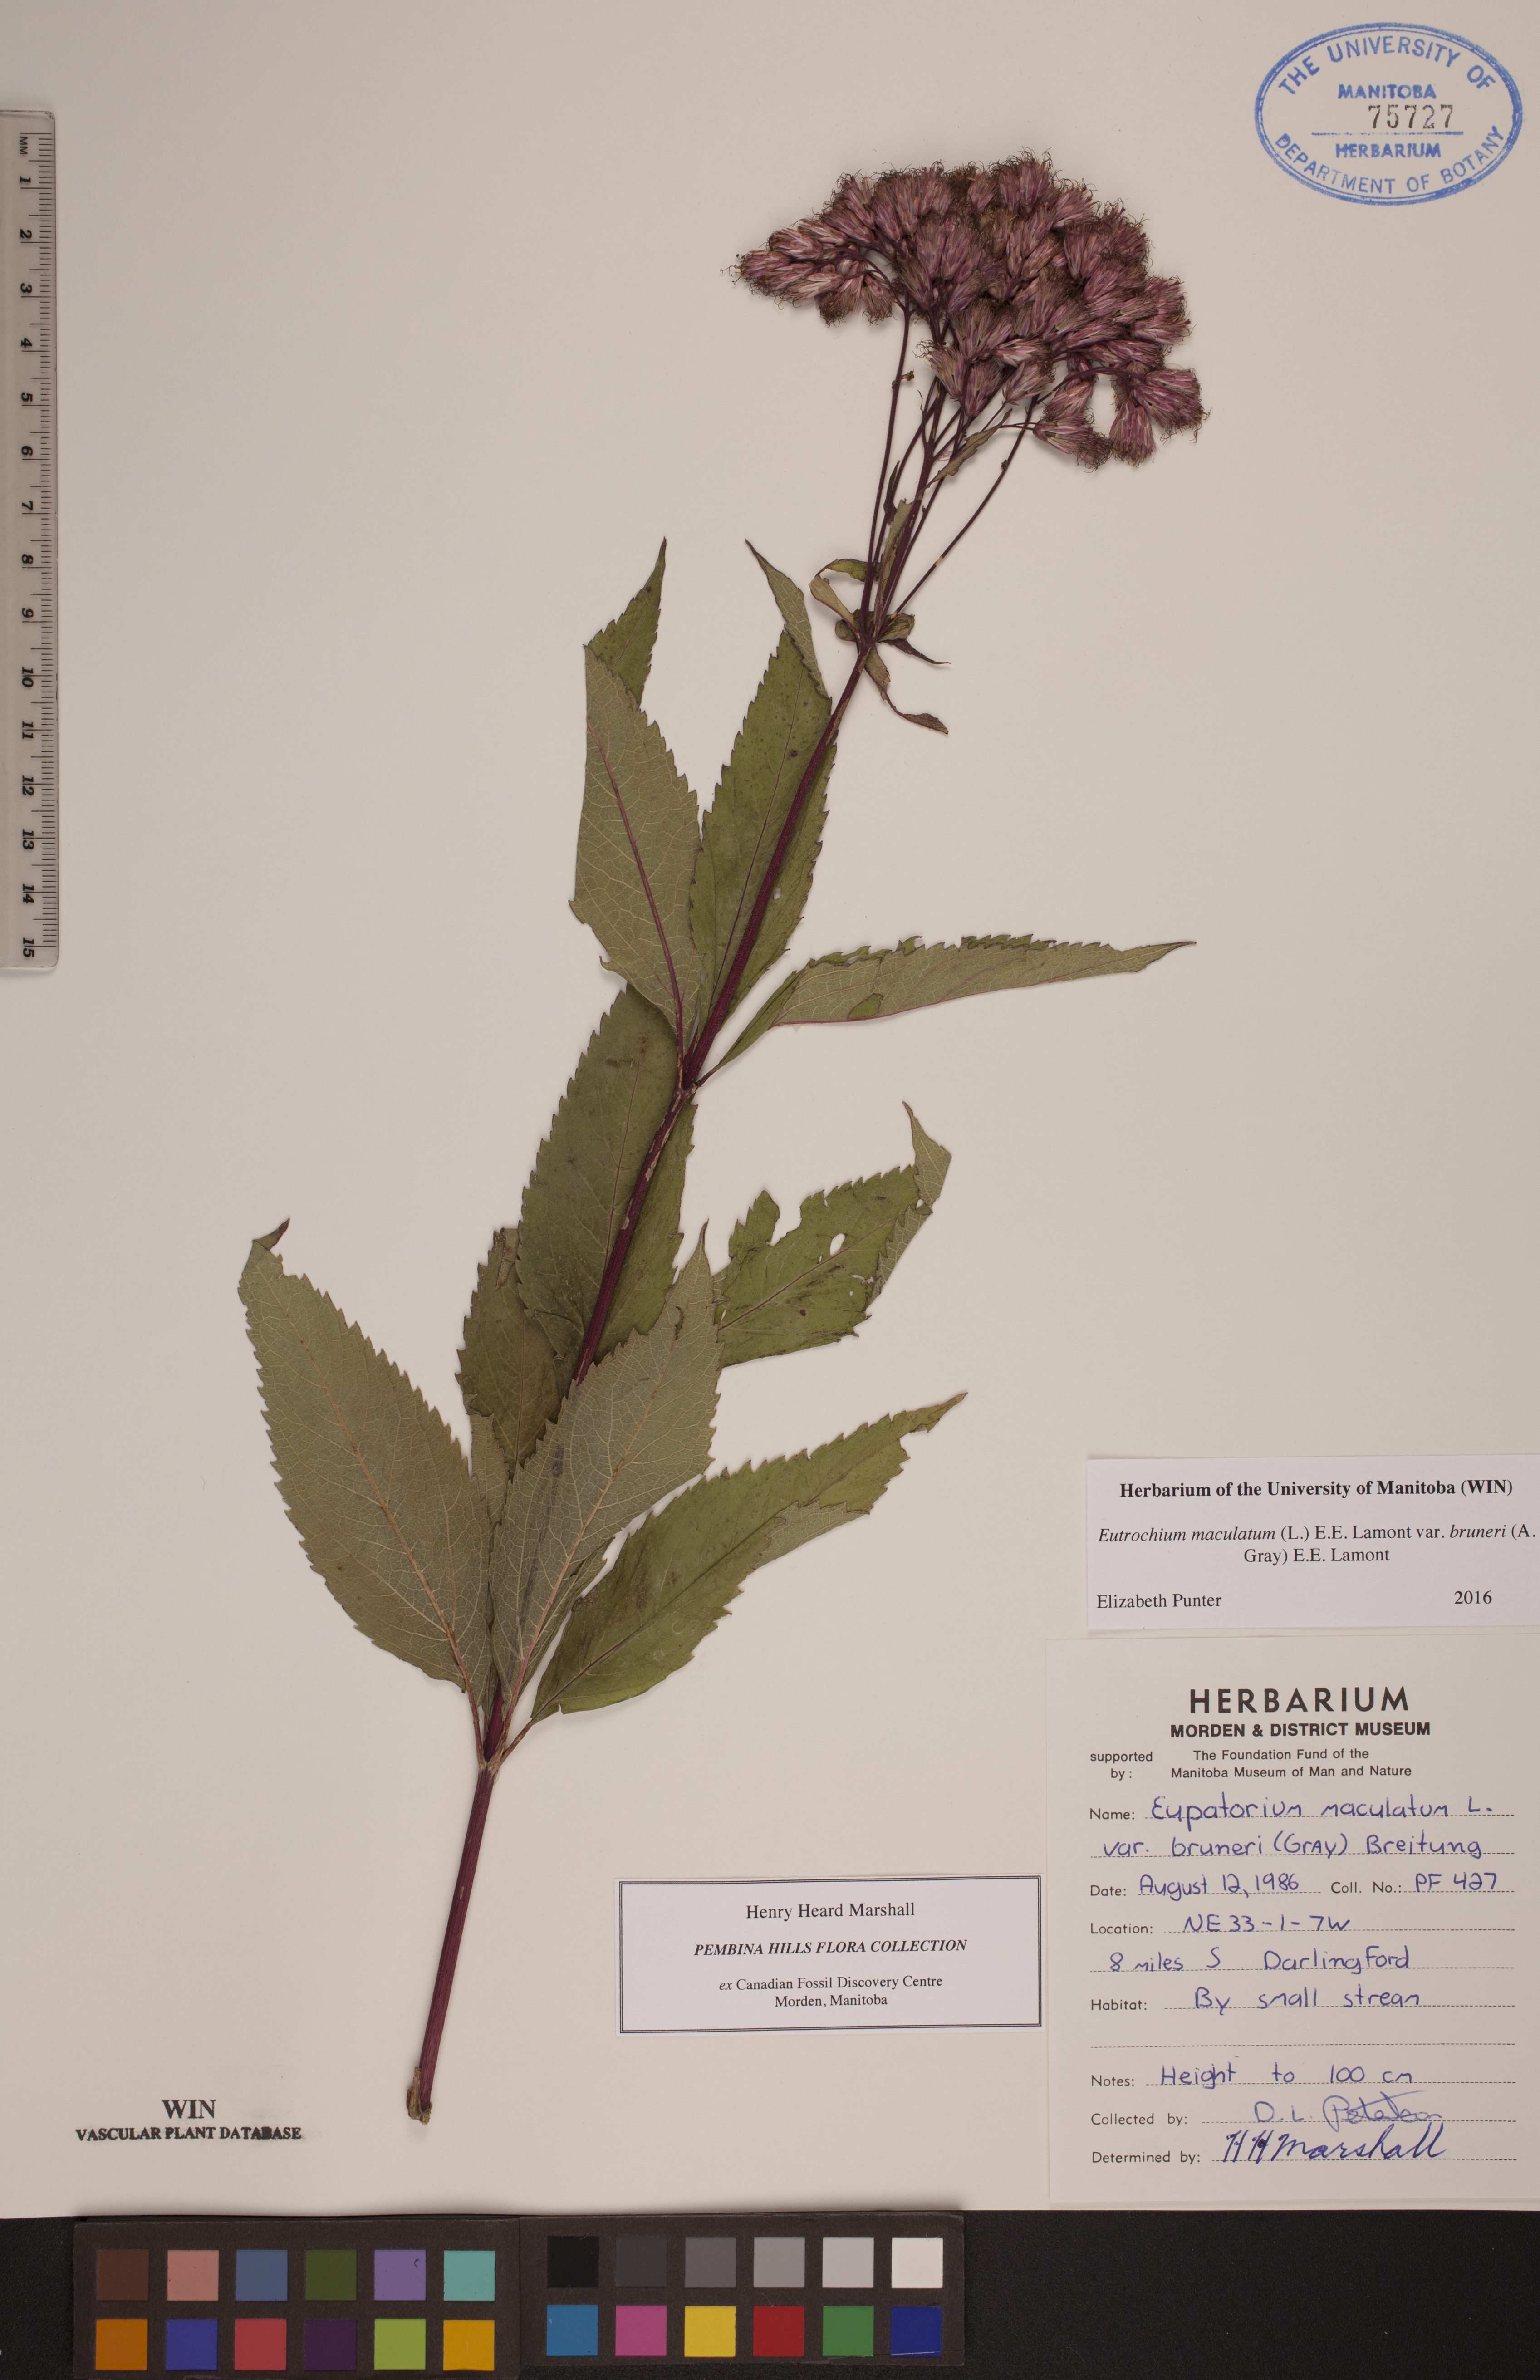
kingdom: Plantae
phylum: Tracheophyta
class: Magnoliopsida
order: Asterales
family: Asteraceae
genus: Eutrochium
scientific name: Eutrochium maculatum
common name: Spotted joe pye weed
